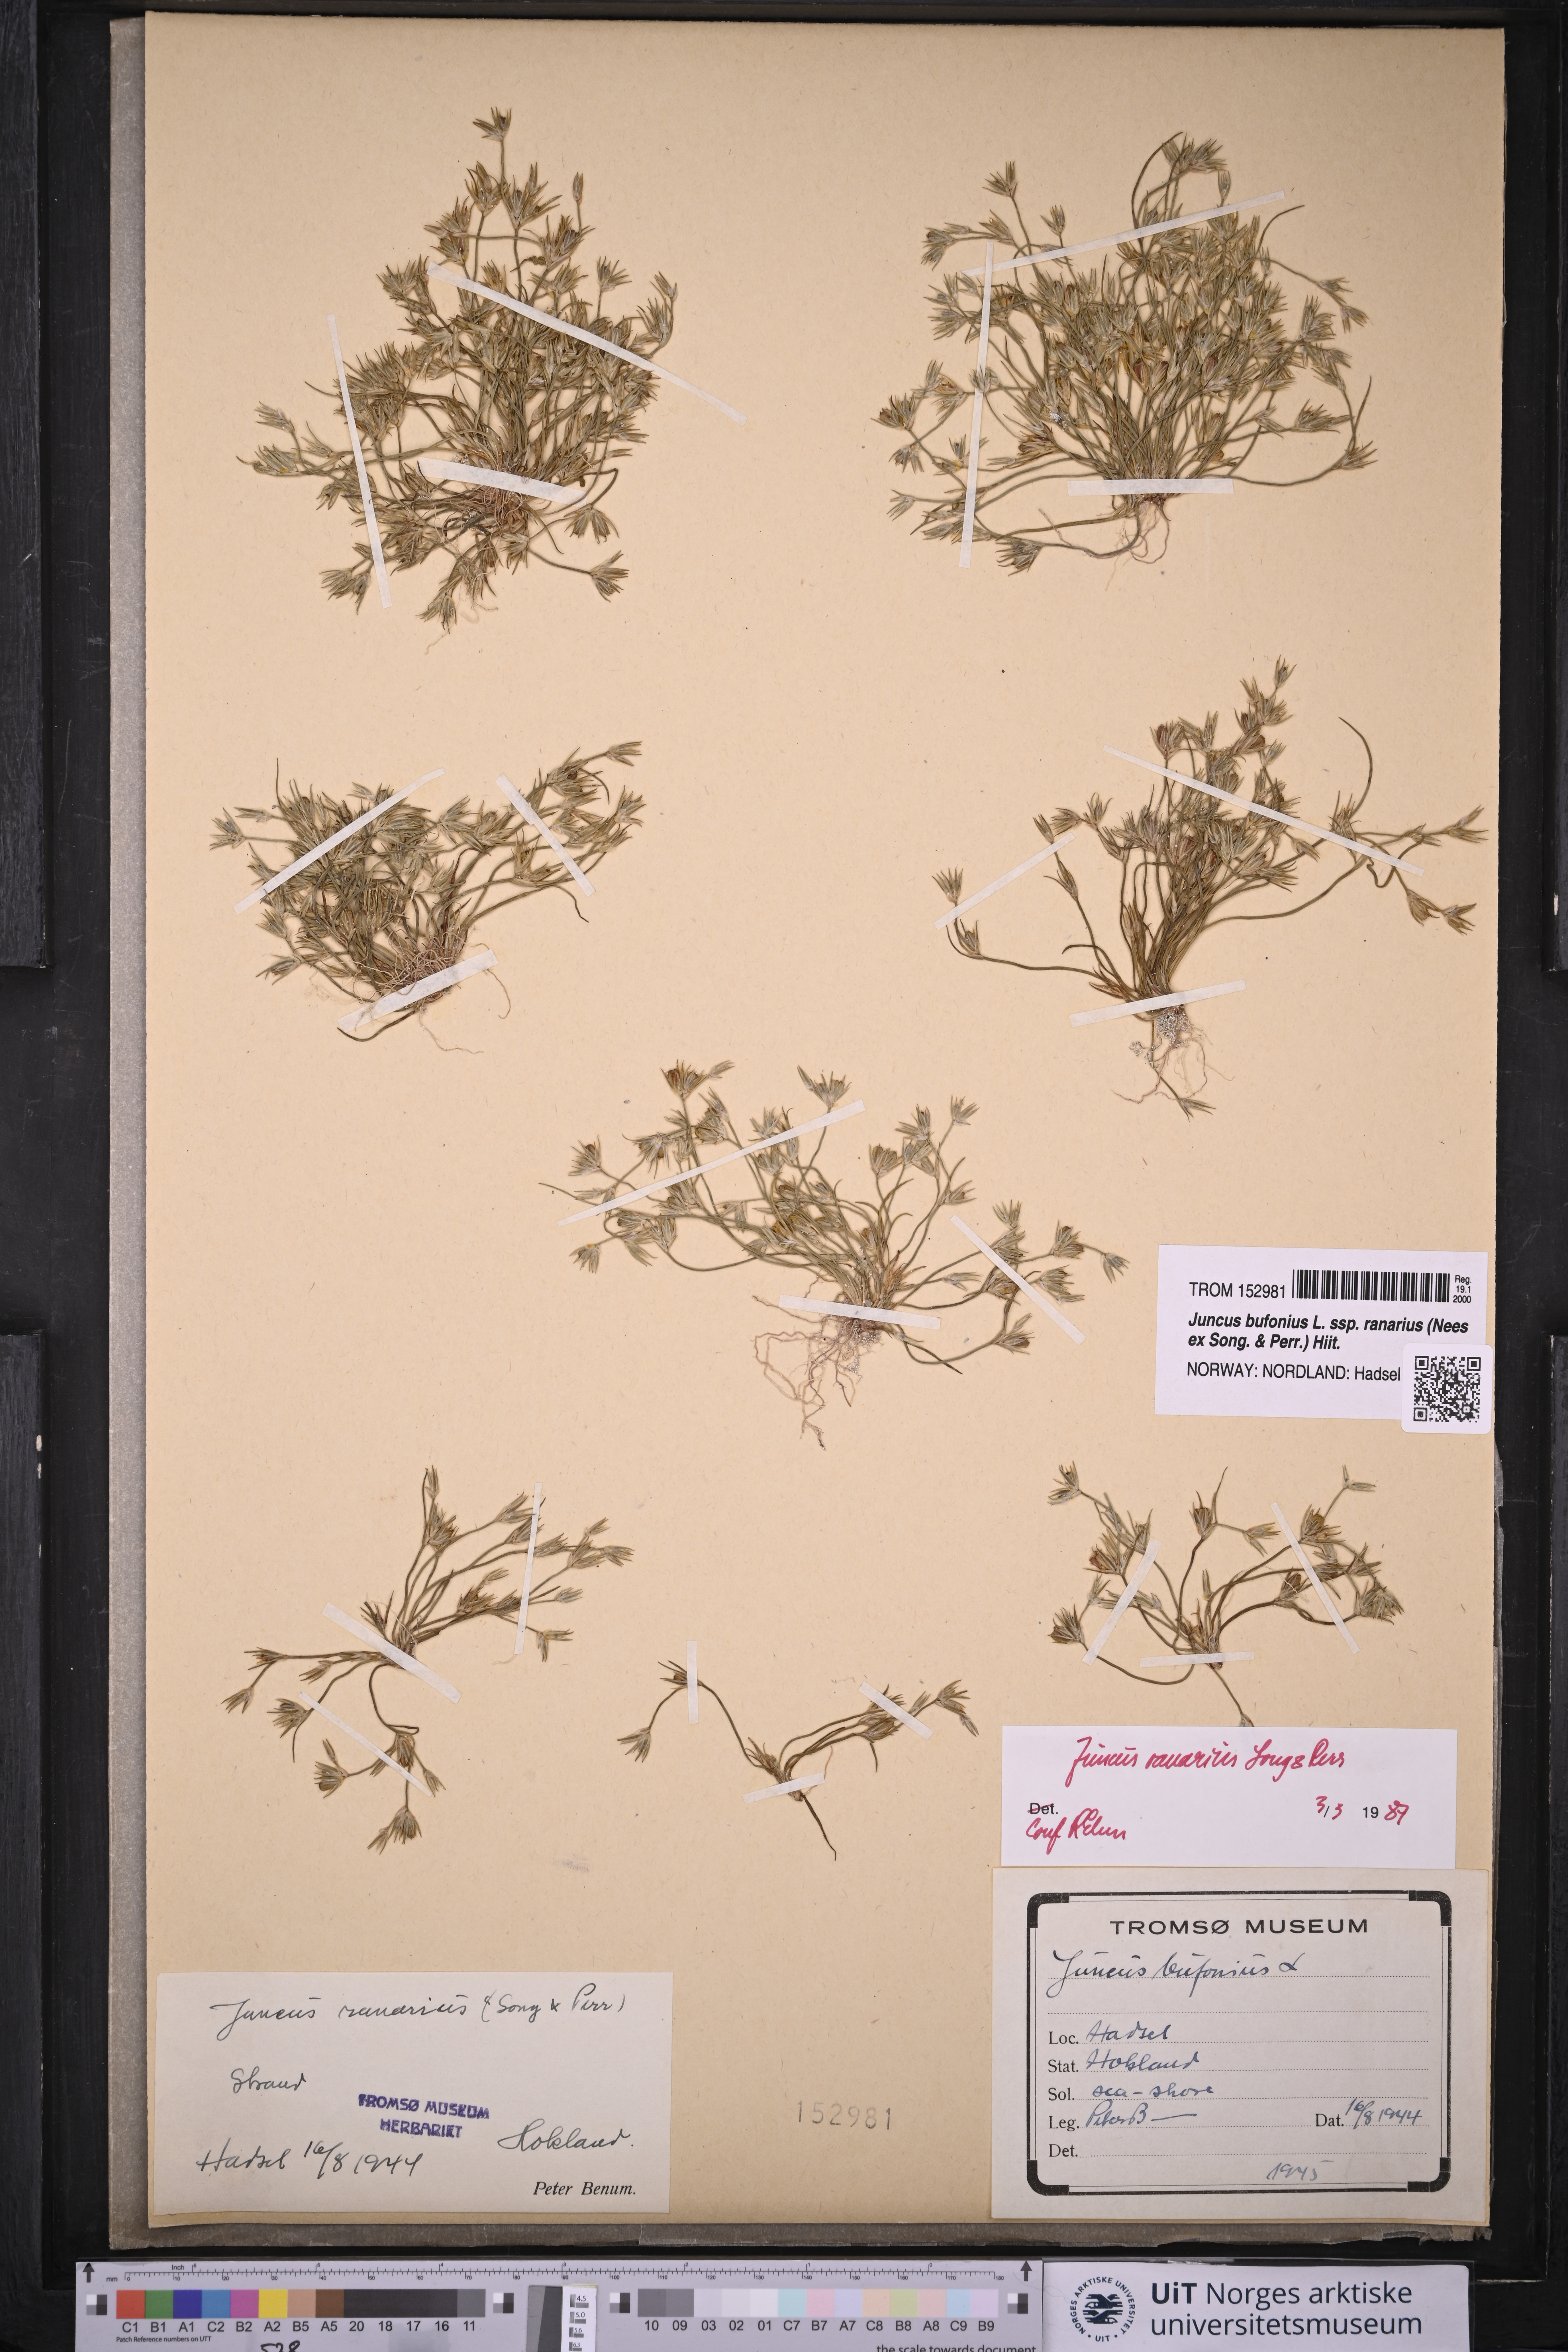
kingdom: Plantae
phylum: Tracheophyta
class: Liliopsida
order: Poales
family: Juncaceae
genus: Juncus
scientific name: Juncus ranarius
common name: Frog rush
